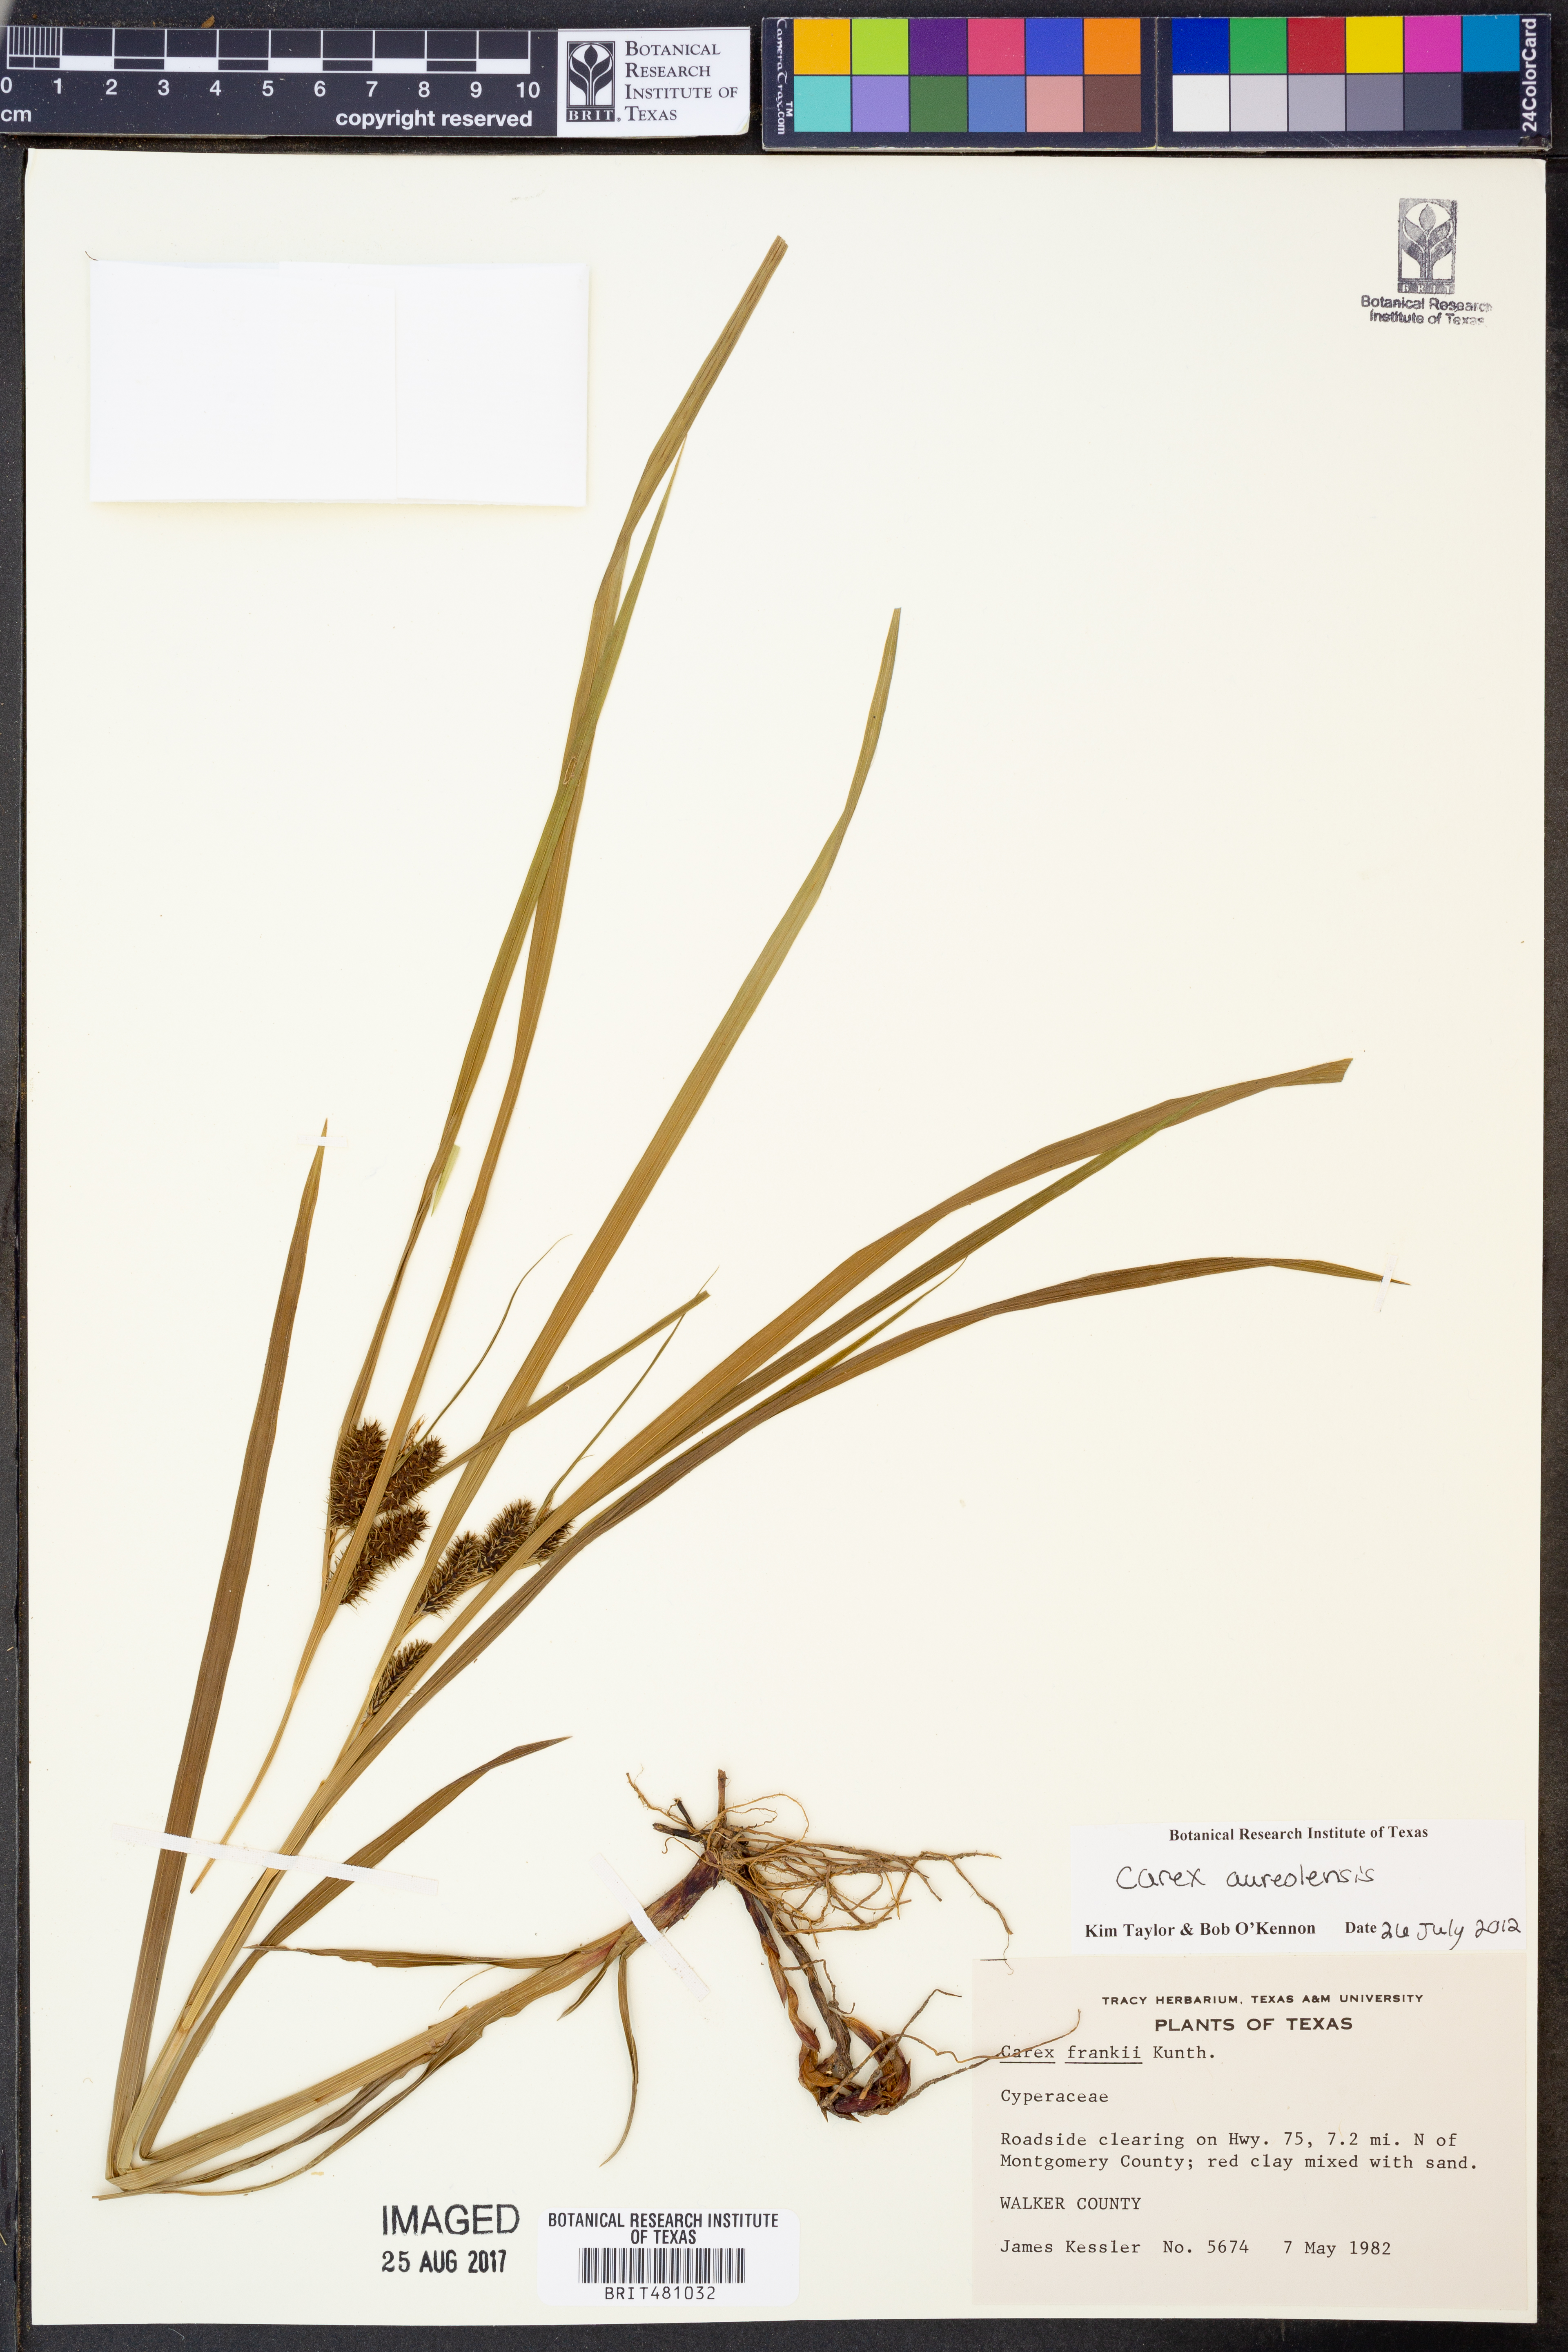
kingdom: Plantae
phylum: Tracheophyta
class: Liliopsida
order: Poales
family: Cyperaceae
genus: Carex
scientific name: Carex aureolensis
